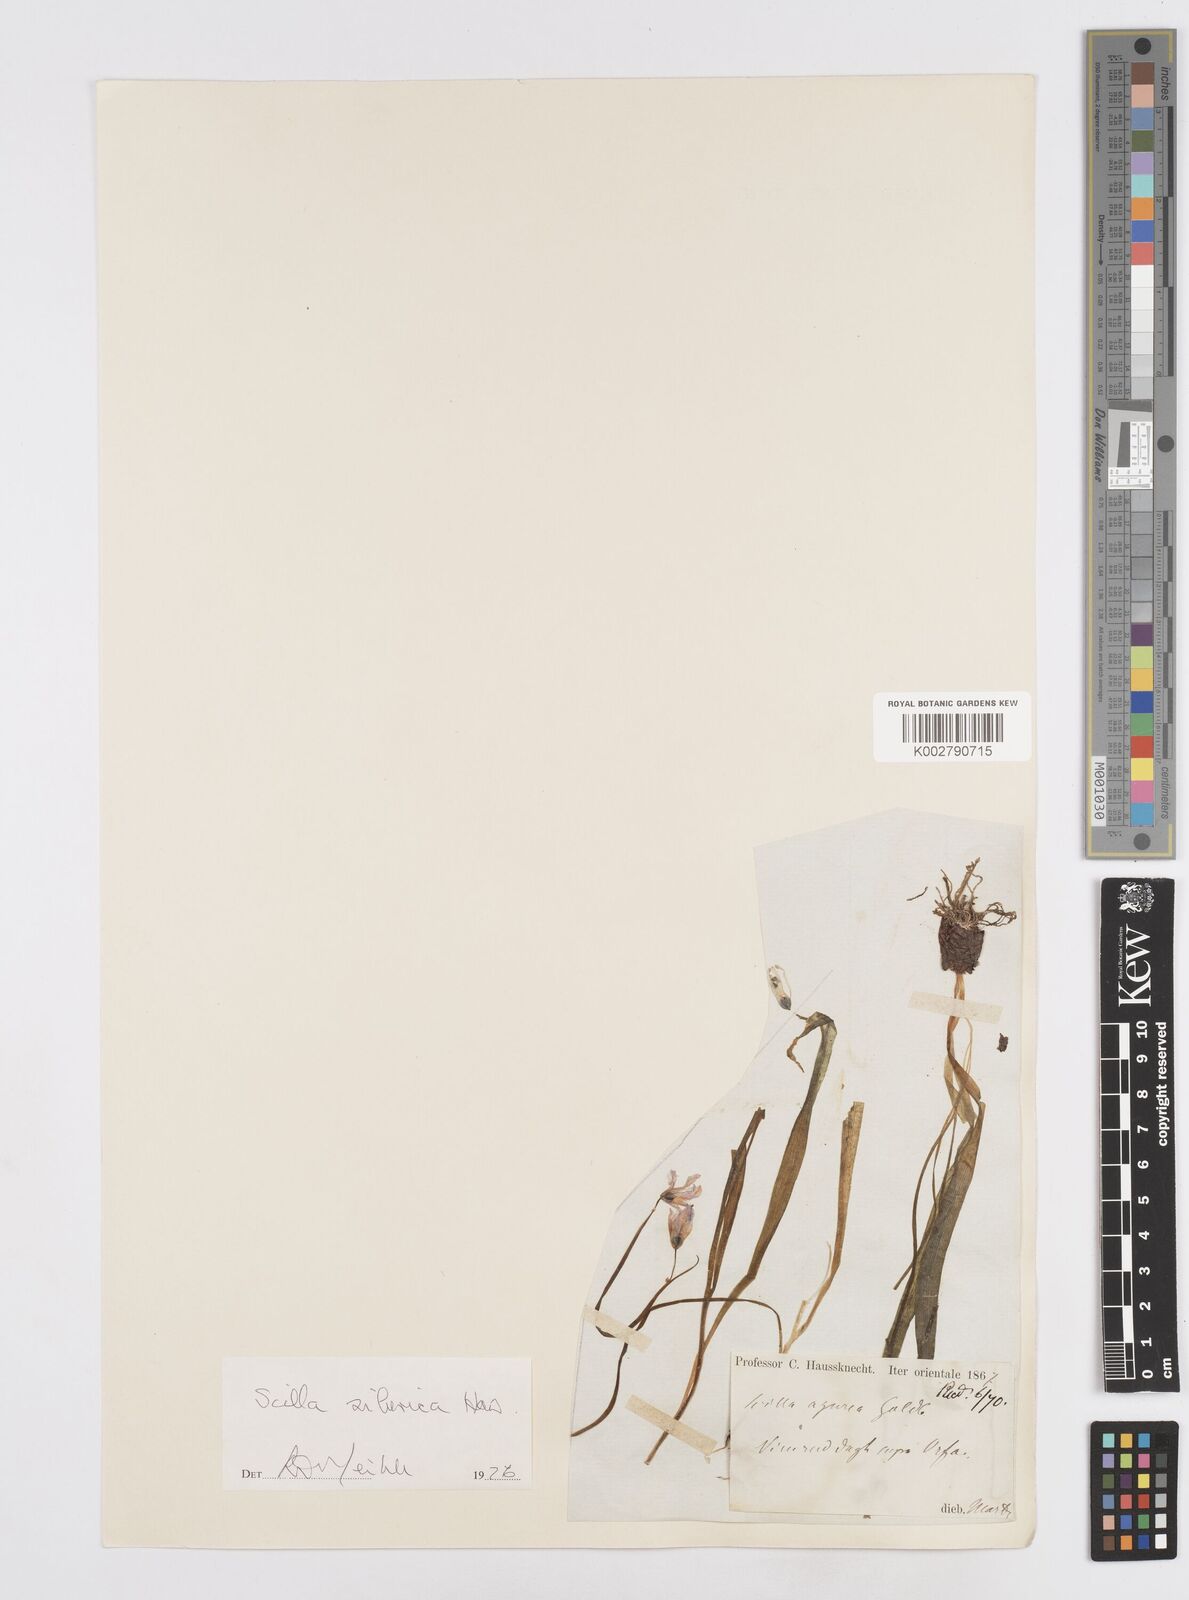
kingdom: Plantae
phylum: Tracheophyta
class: Liliopsida
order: Asparagales
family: Asparagaceae
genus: Scilla
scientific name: Scilla siberica
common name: Siberian squill
